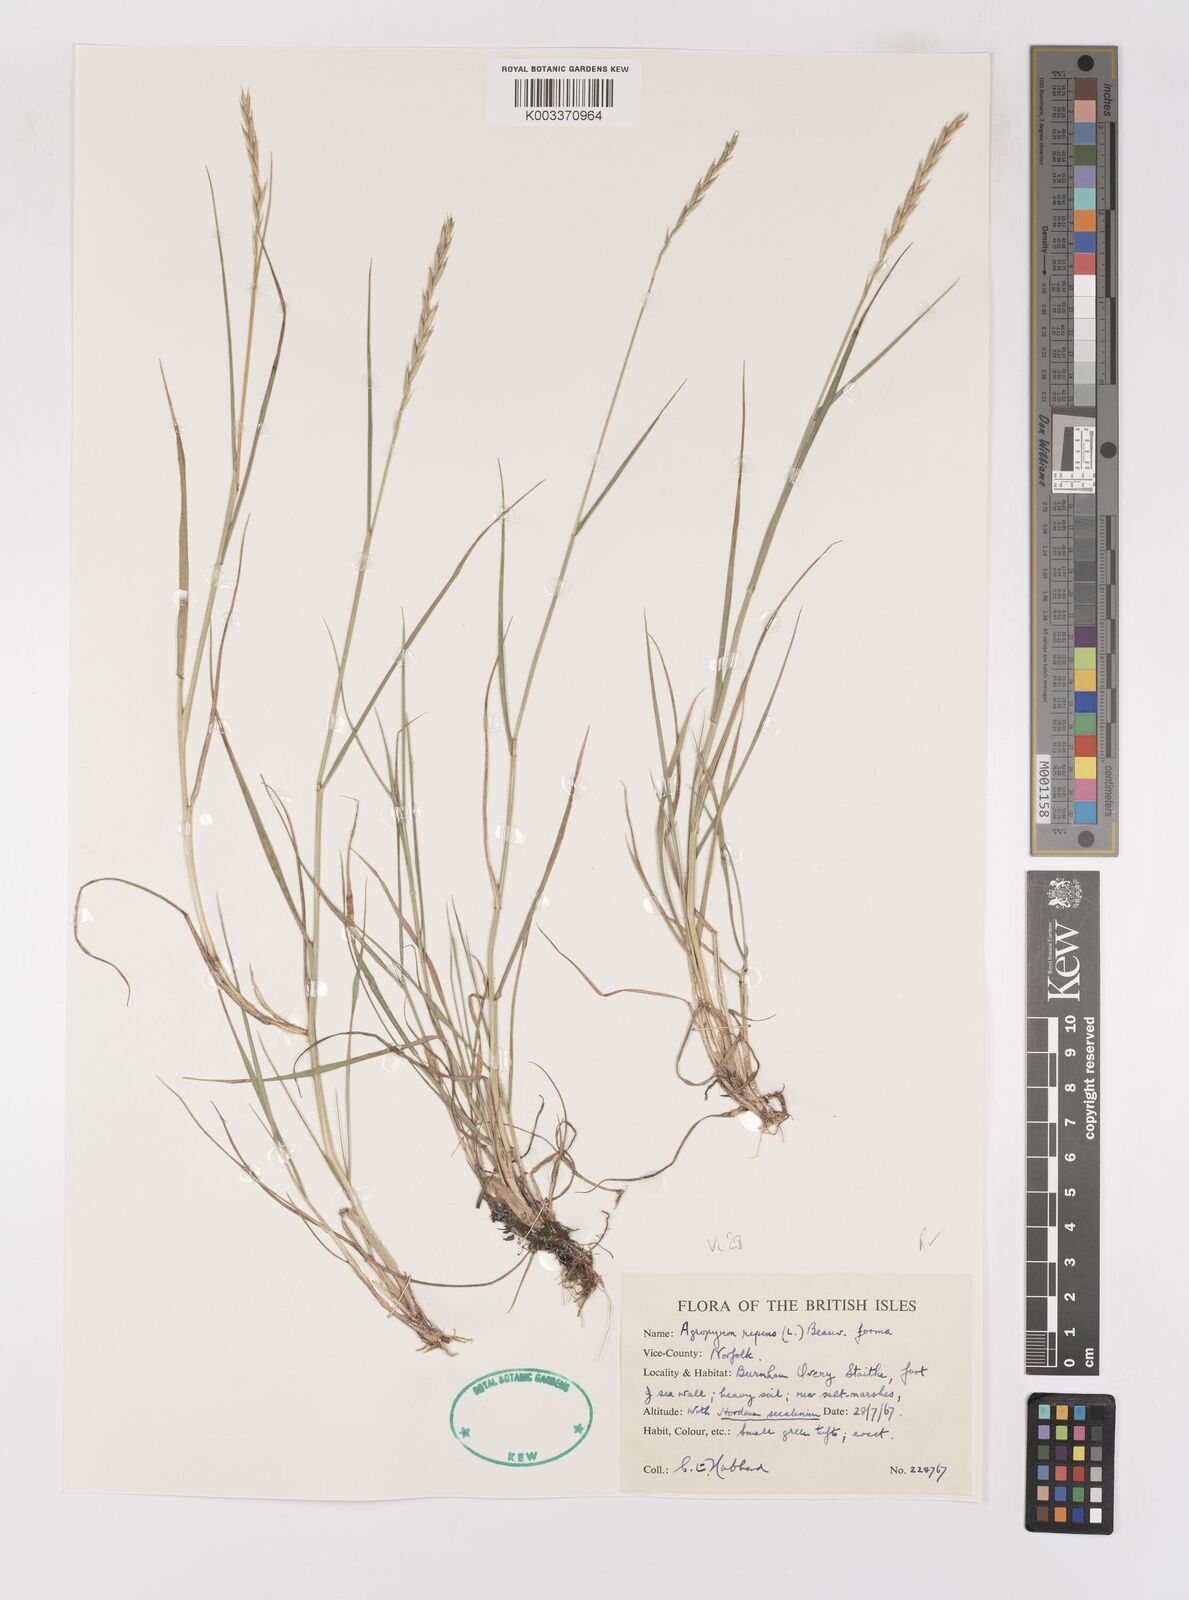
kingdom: Plantae
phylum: Tracheophyta
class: Liliopsida
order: Poales
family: Poaceae
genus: Elymus
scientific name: Elymus repens
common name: Quackgrass
